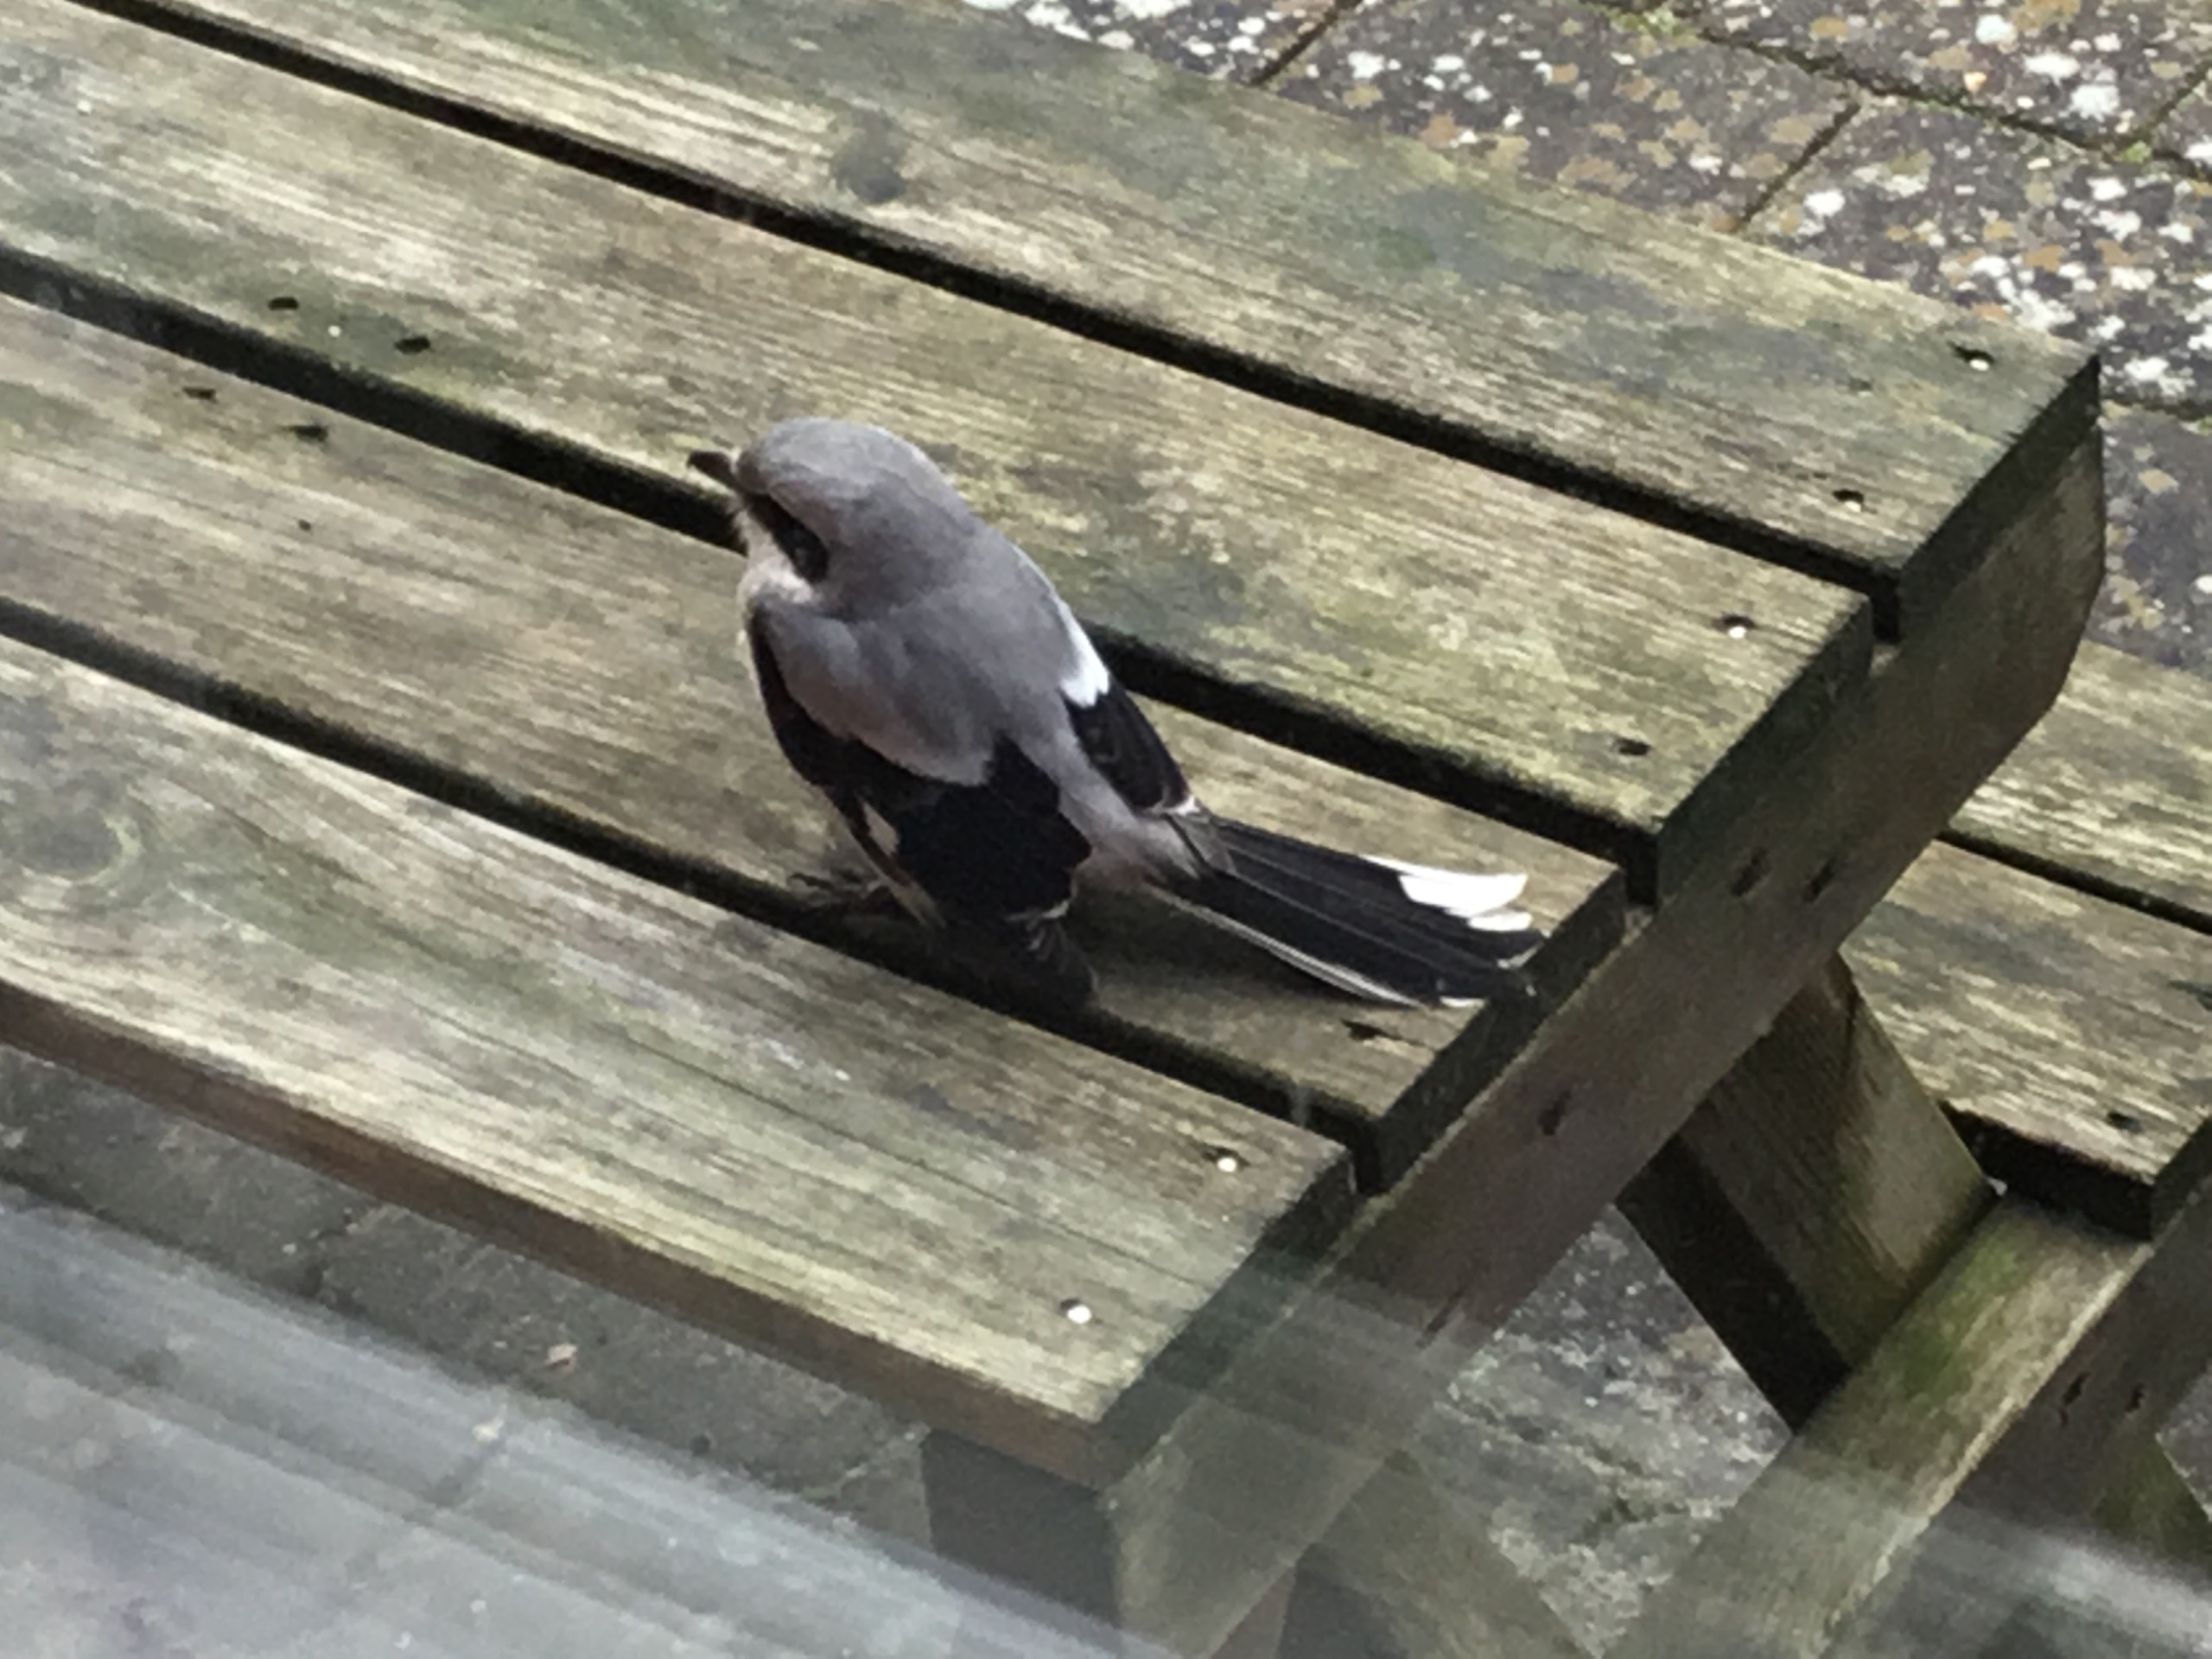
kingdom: Animalia
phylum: Chordata
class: Aves
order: Passeriformes
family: Laniidae
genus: Lanius
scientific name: Lanius excubitor
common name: Stor tornskade
